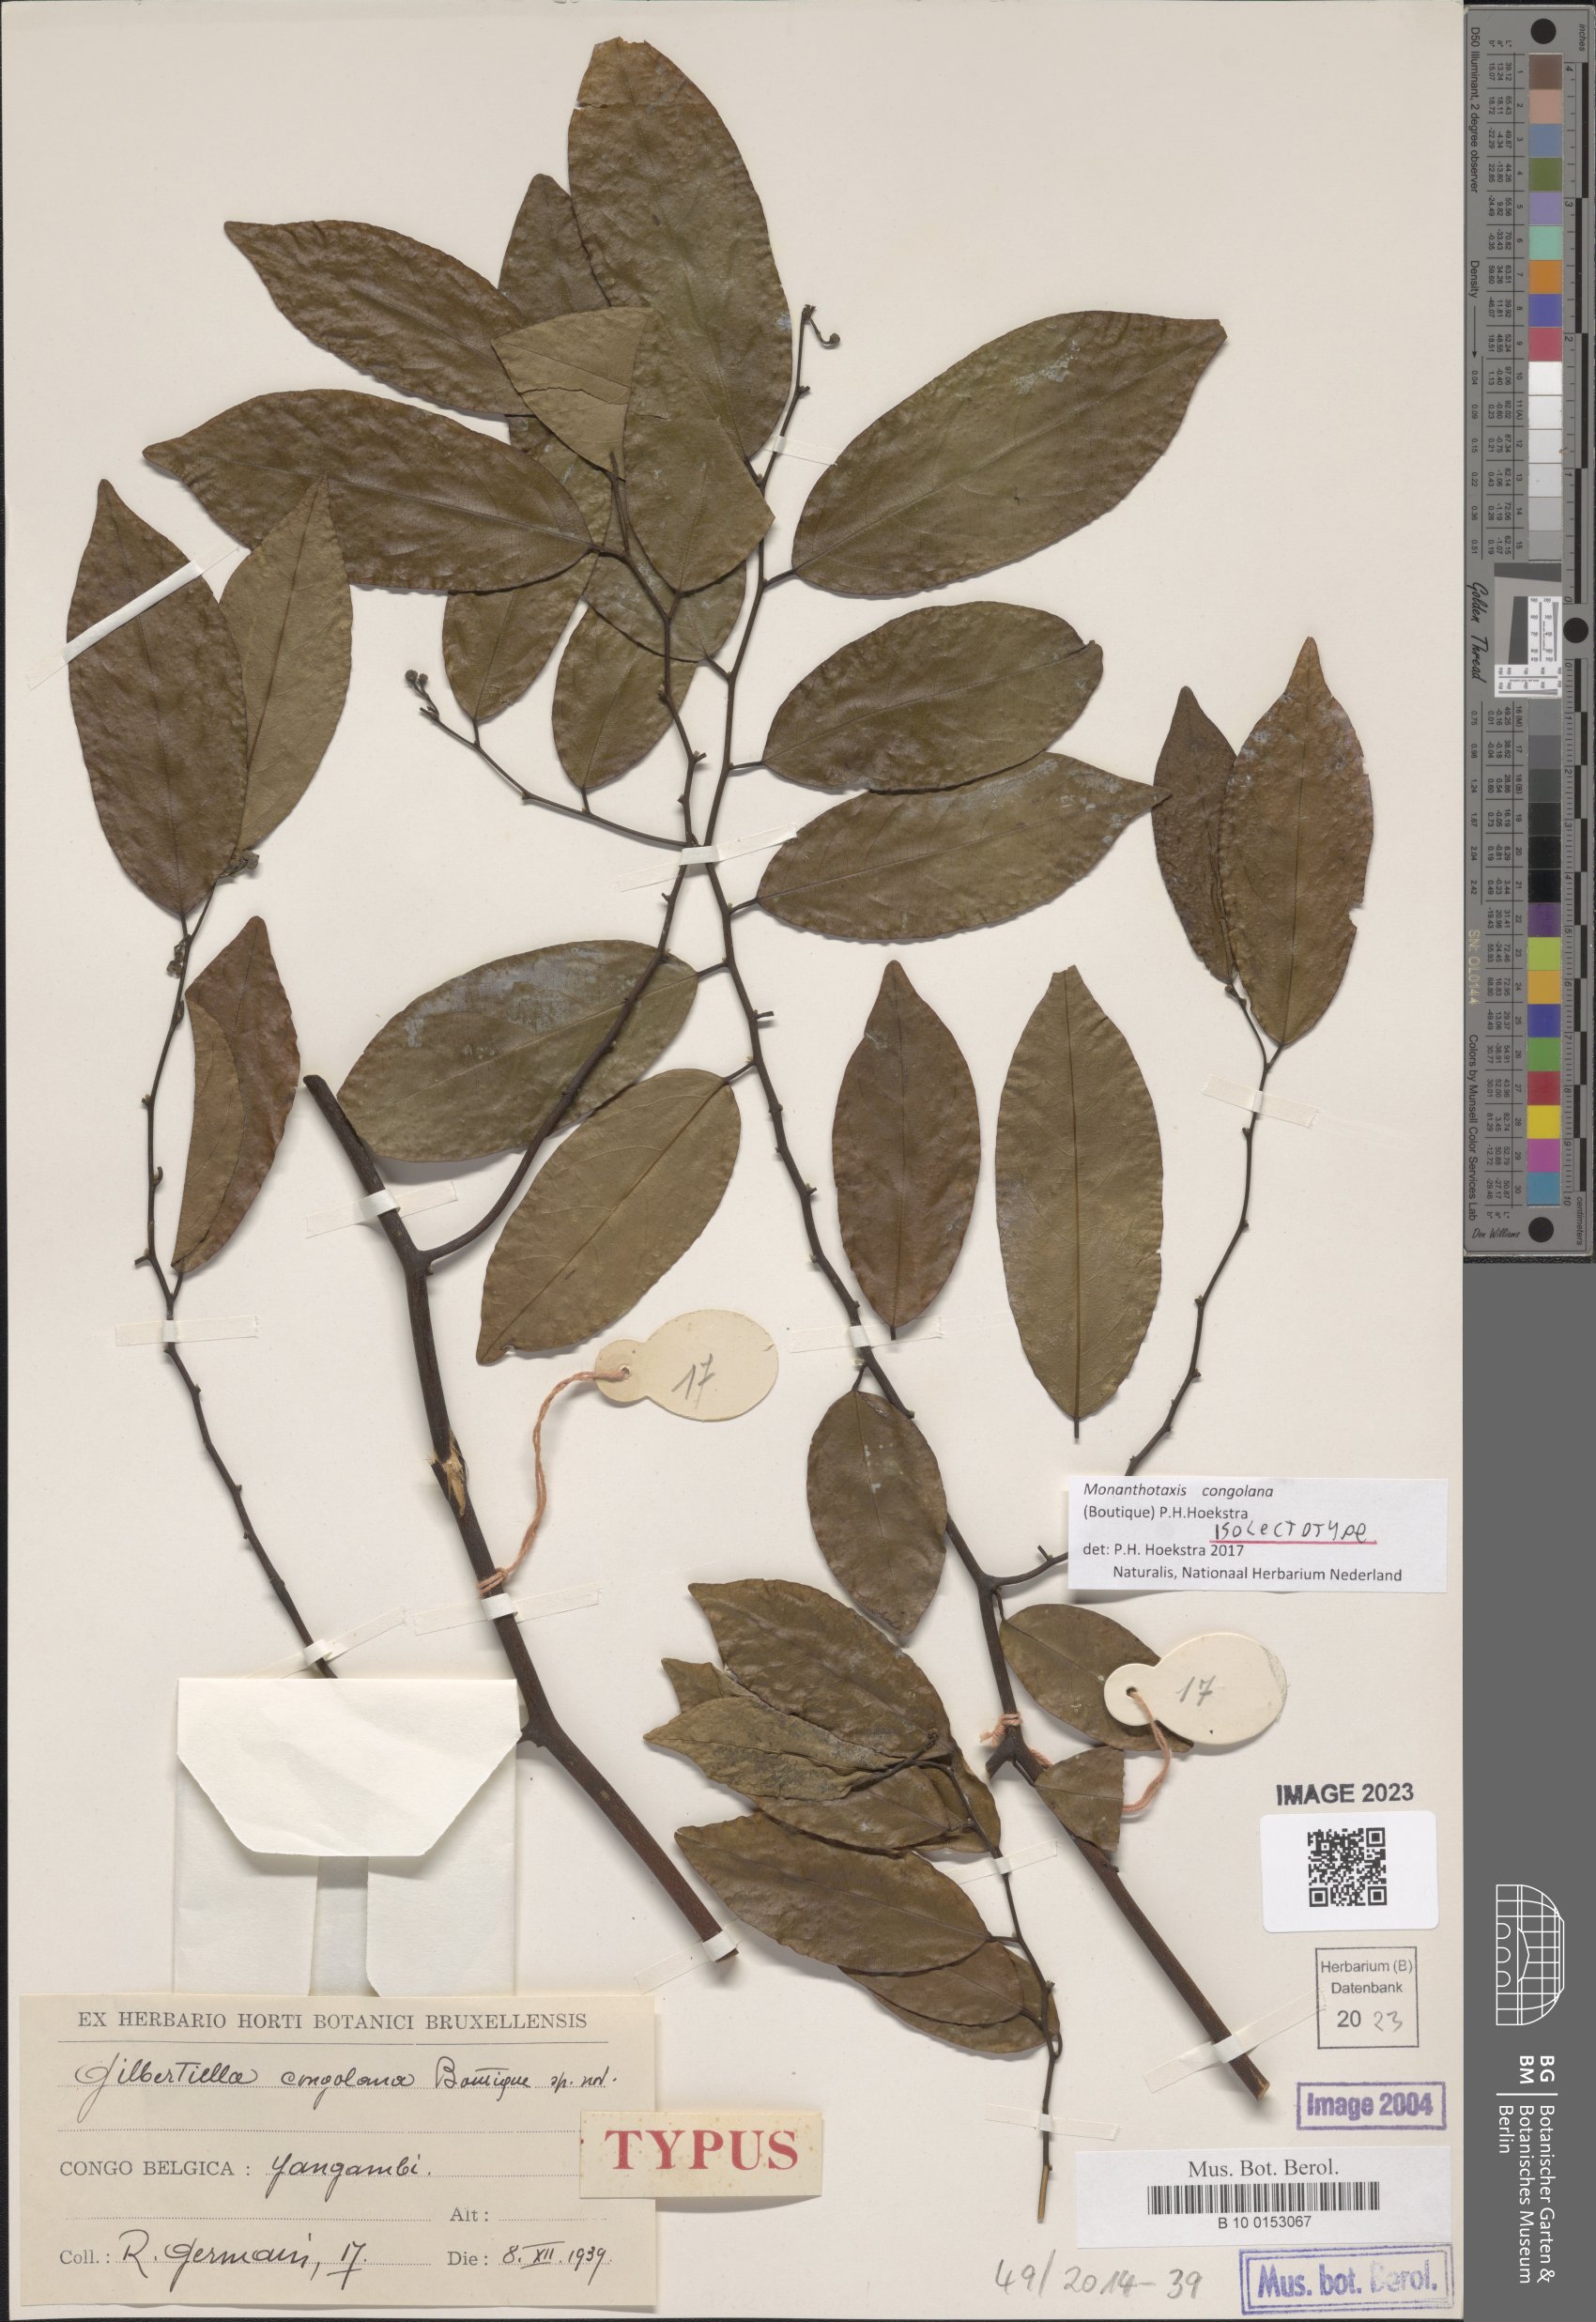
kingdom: Plantae
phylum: Tracheophyta
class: Magnoliopsida
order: Magnoliales
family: Annonaceae
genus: Gilbertiella
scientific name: Gilbertiella congolana
